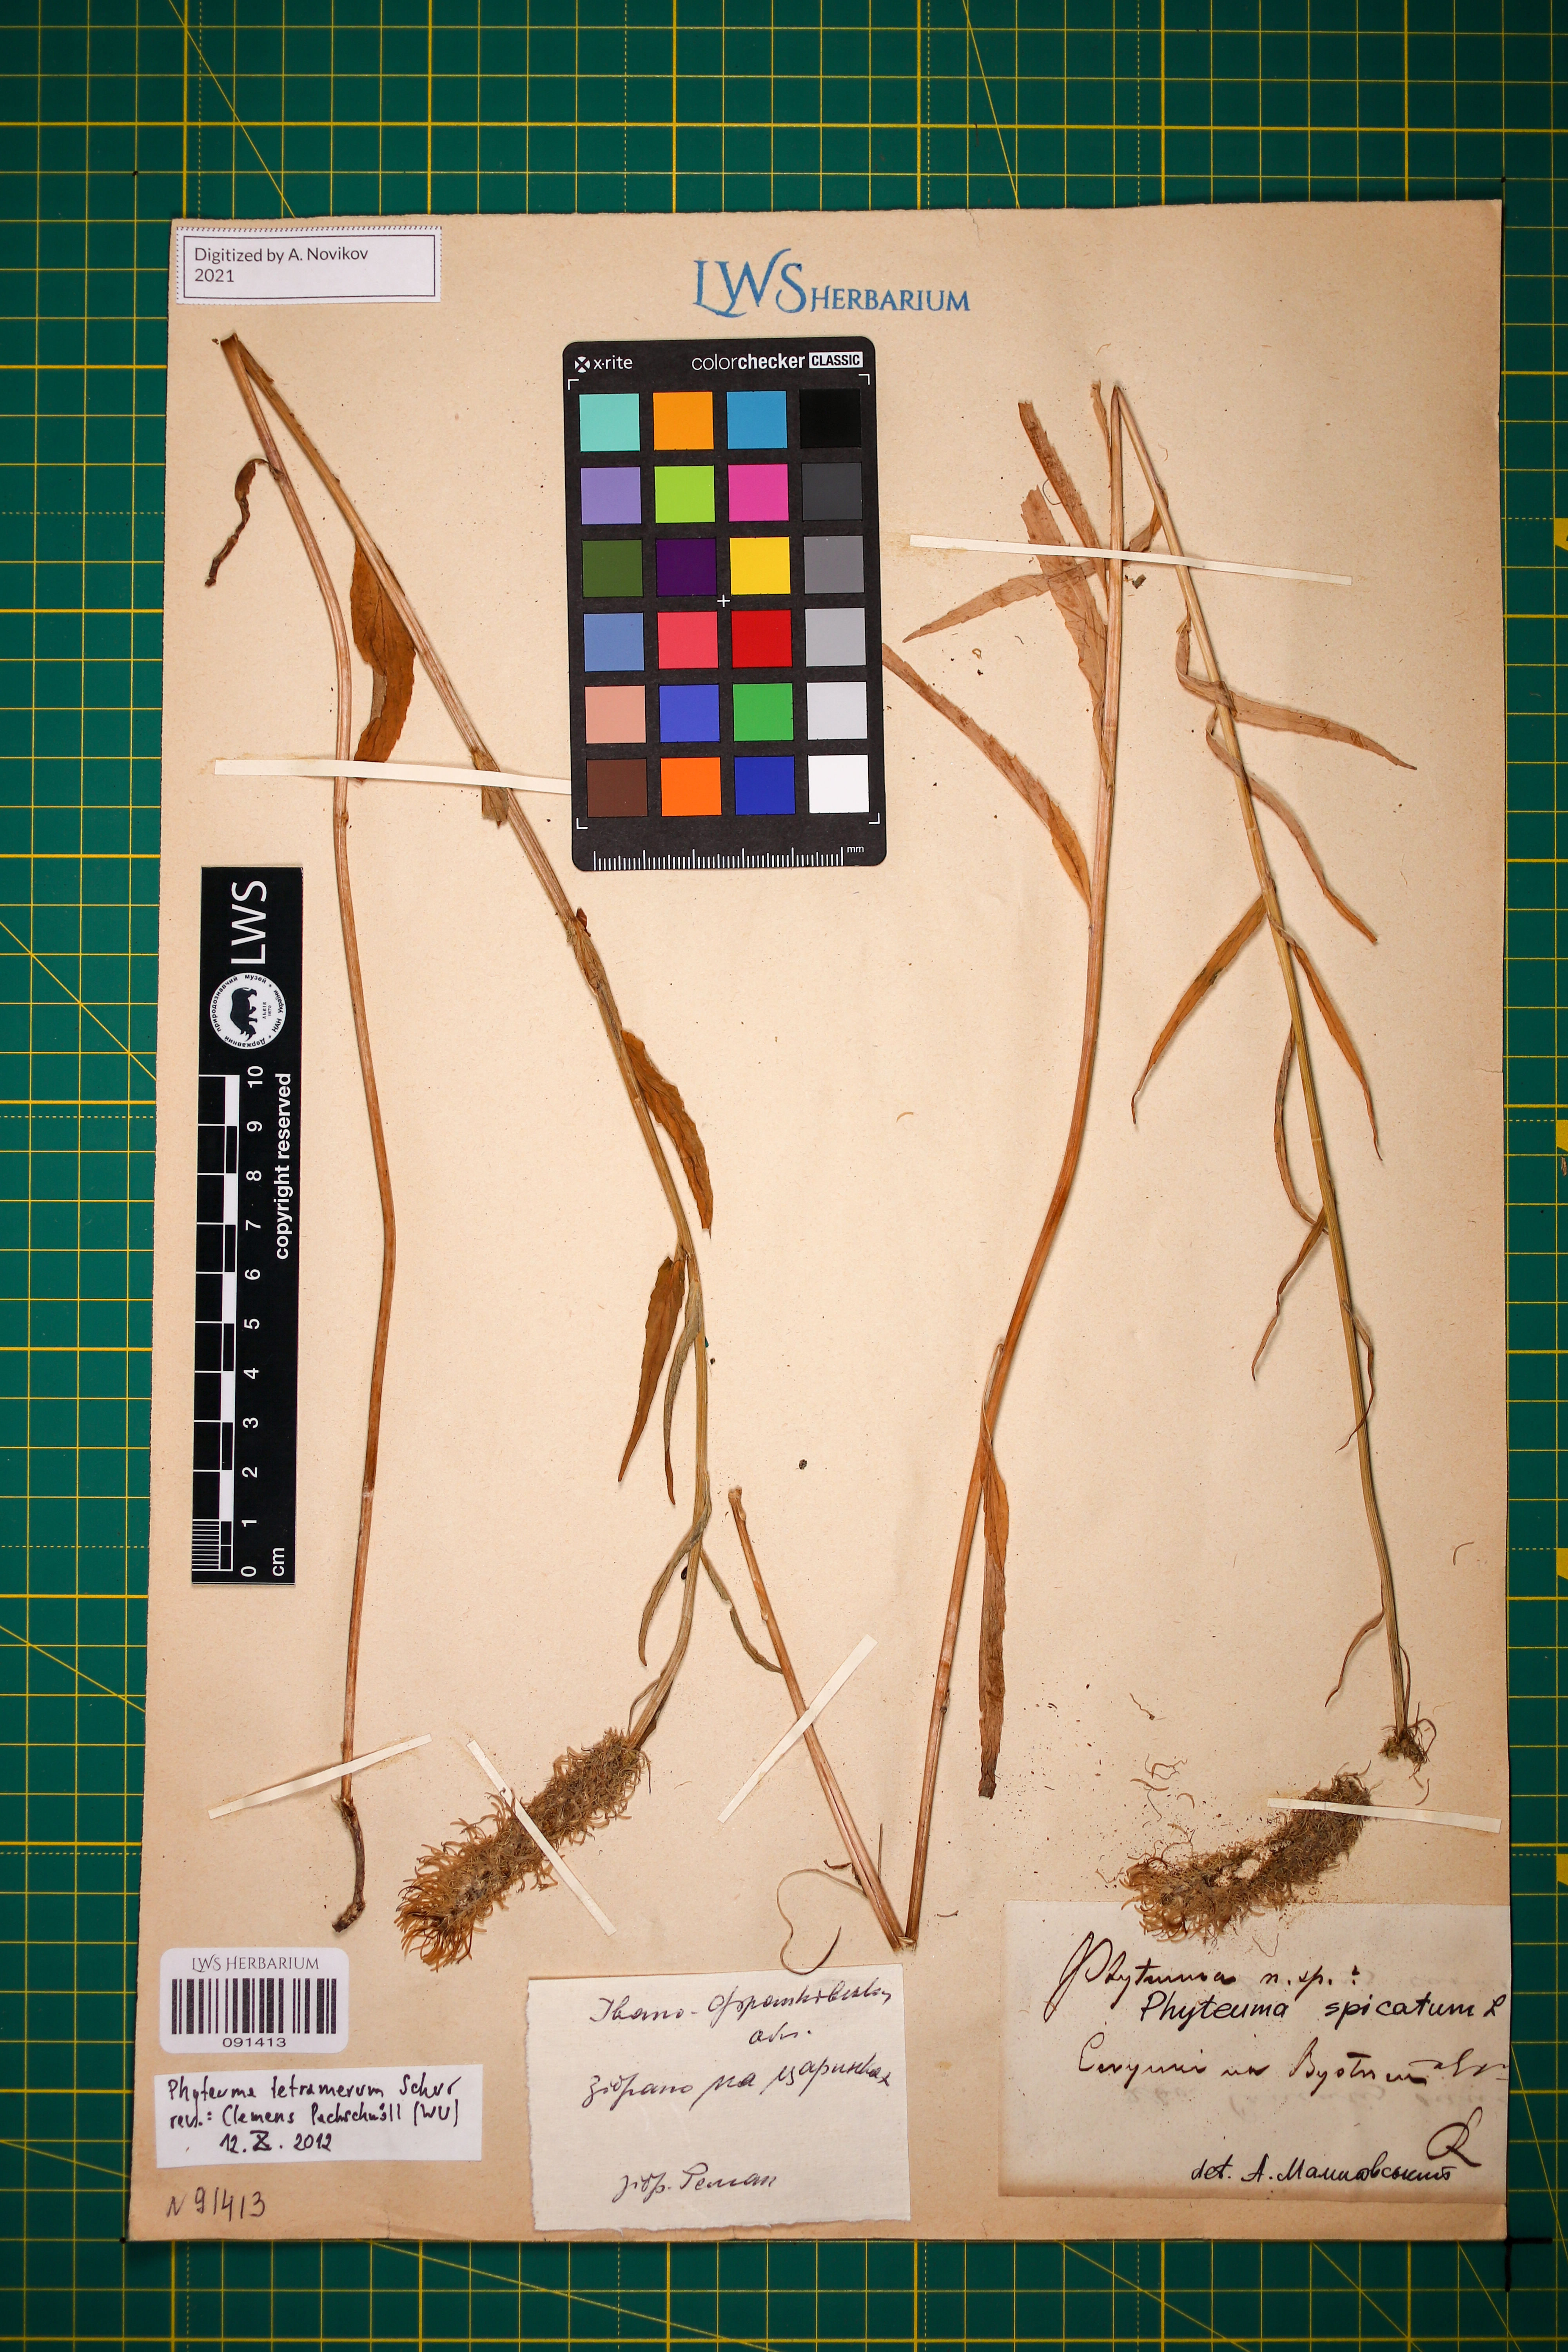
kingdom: Plantae
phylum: Tracheophyta
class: Magnoliopsida
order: Asterales
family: Campanulaceae
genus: Phyteuma
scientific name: Phyteuma tetramerum
